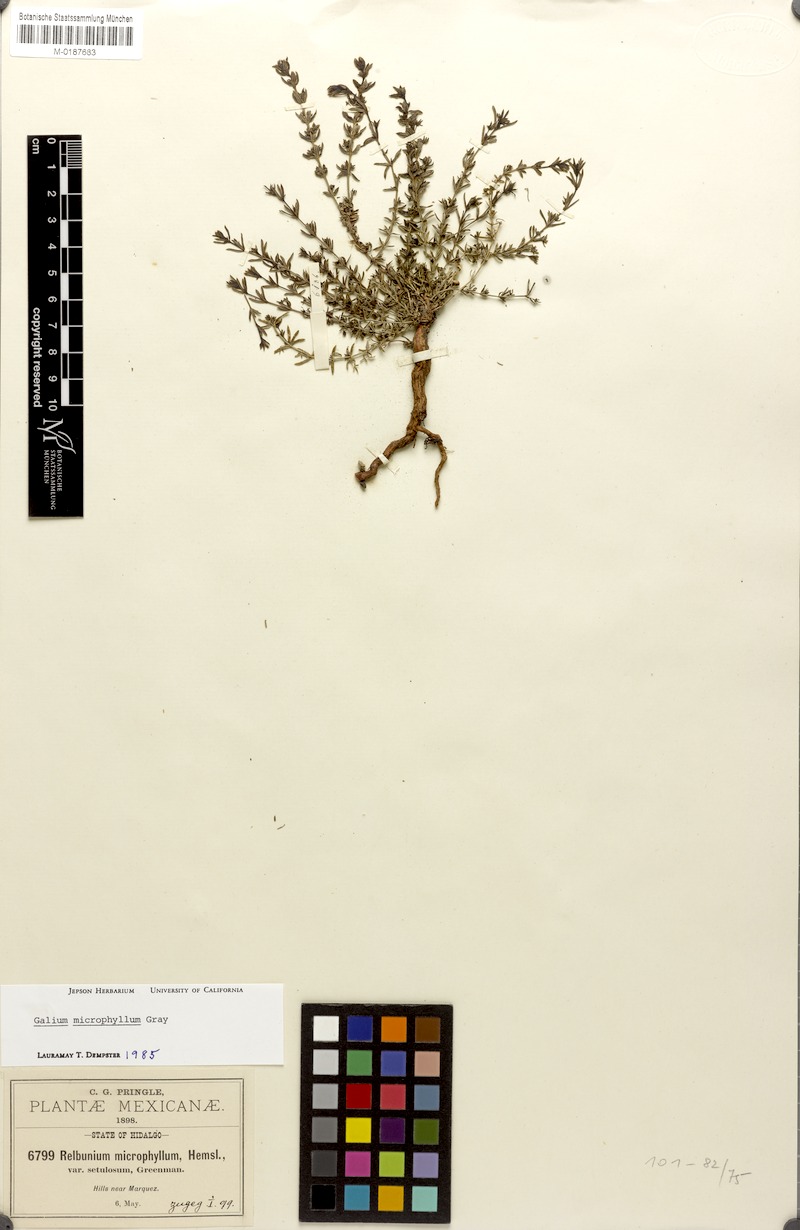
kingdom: Plantae
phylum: Tracheophyta
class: Magnoliopsida
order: Gentianales
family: Rubiaceae
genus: Galium
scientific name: Galium microphyllum
